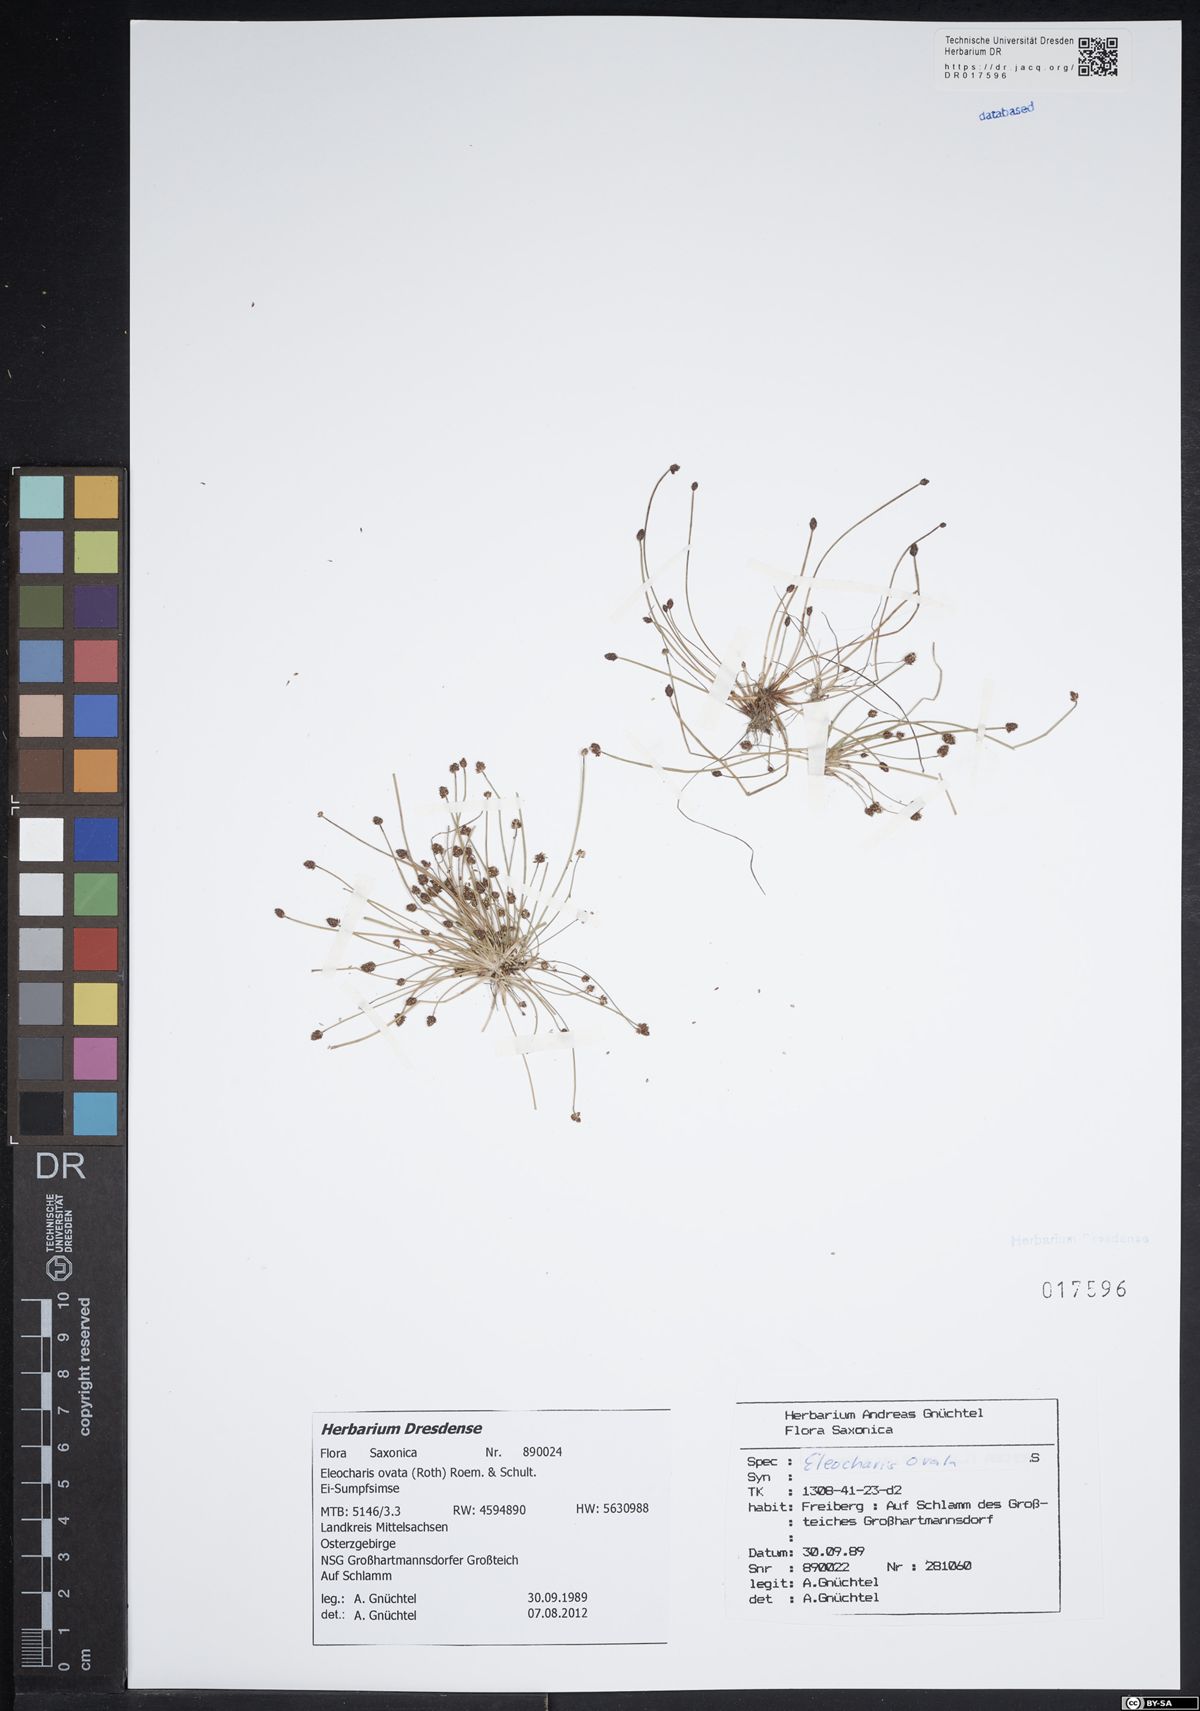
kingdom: Plantae
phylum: Tracheophyta
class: Liliopsida
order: Poales
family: Cyperaceae
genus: Eleocharis
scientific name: Eleocharis ovata
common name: Oval spike-rush
